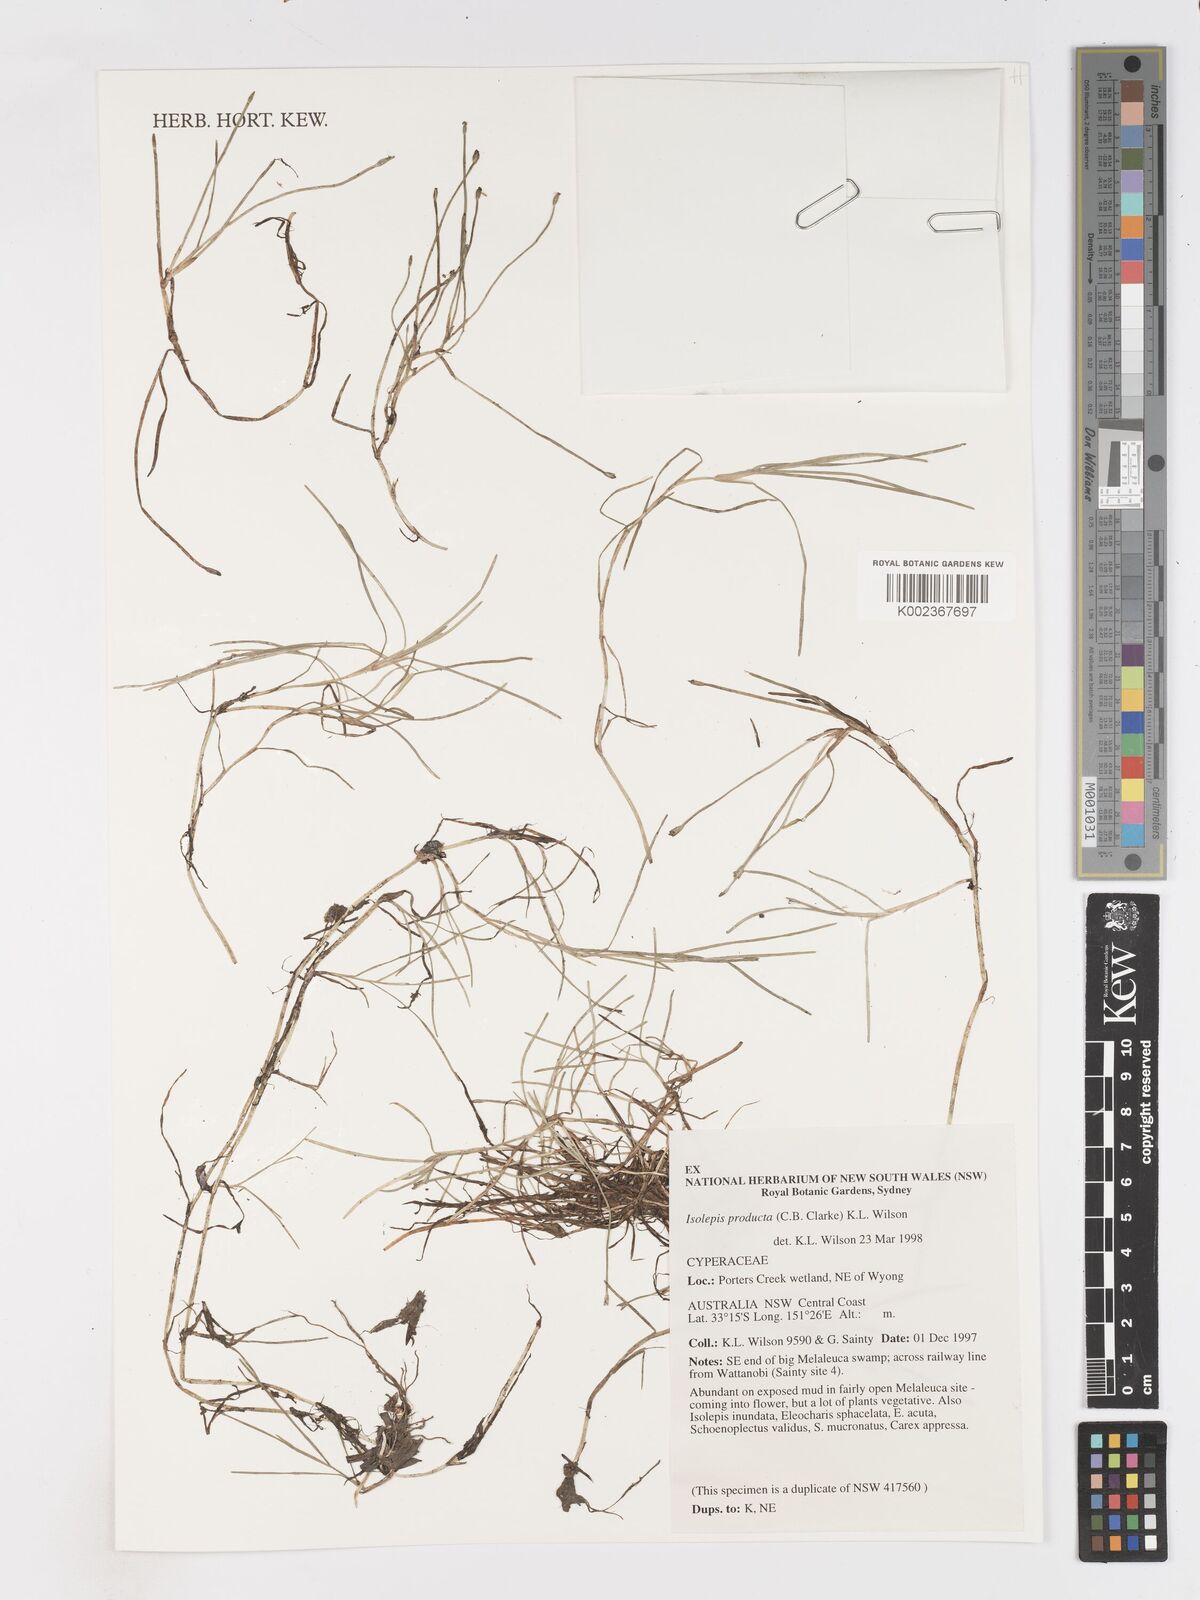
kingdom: Plantae
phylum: Tracheophyta
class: Liliopsida
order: Poales
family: Cyperaceae
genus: Isolepis
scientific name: Isolepis producta
